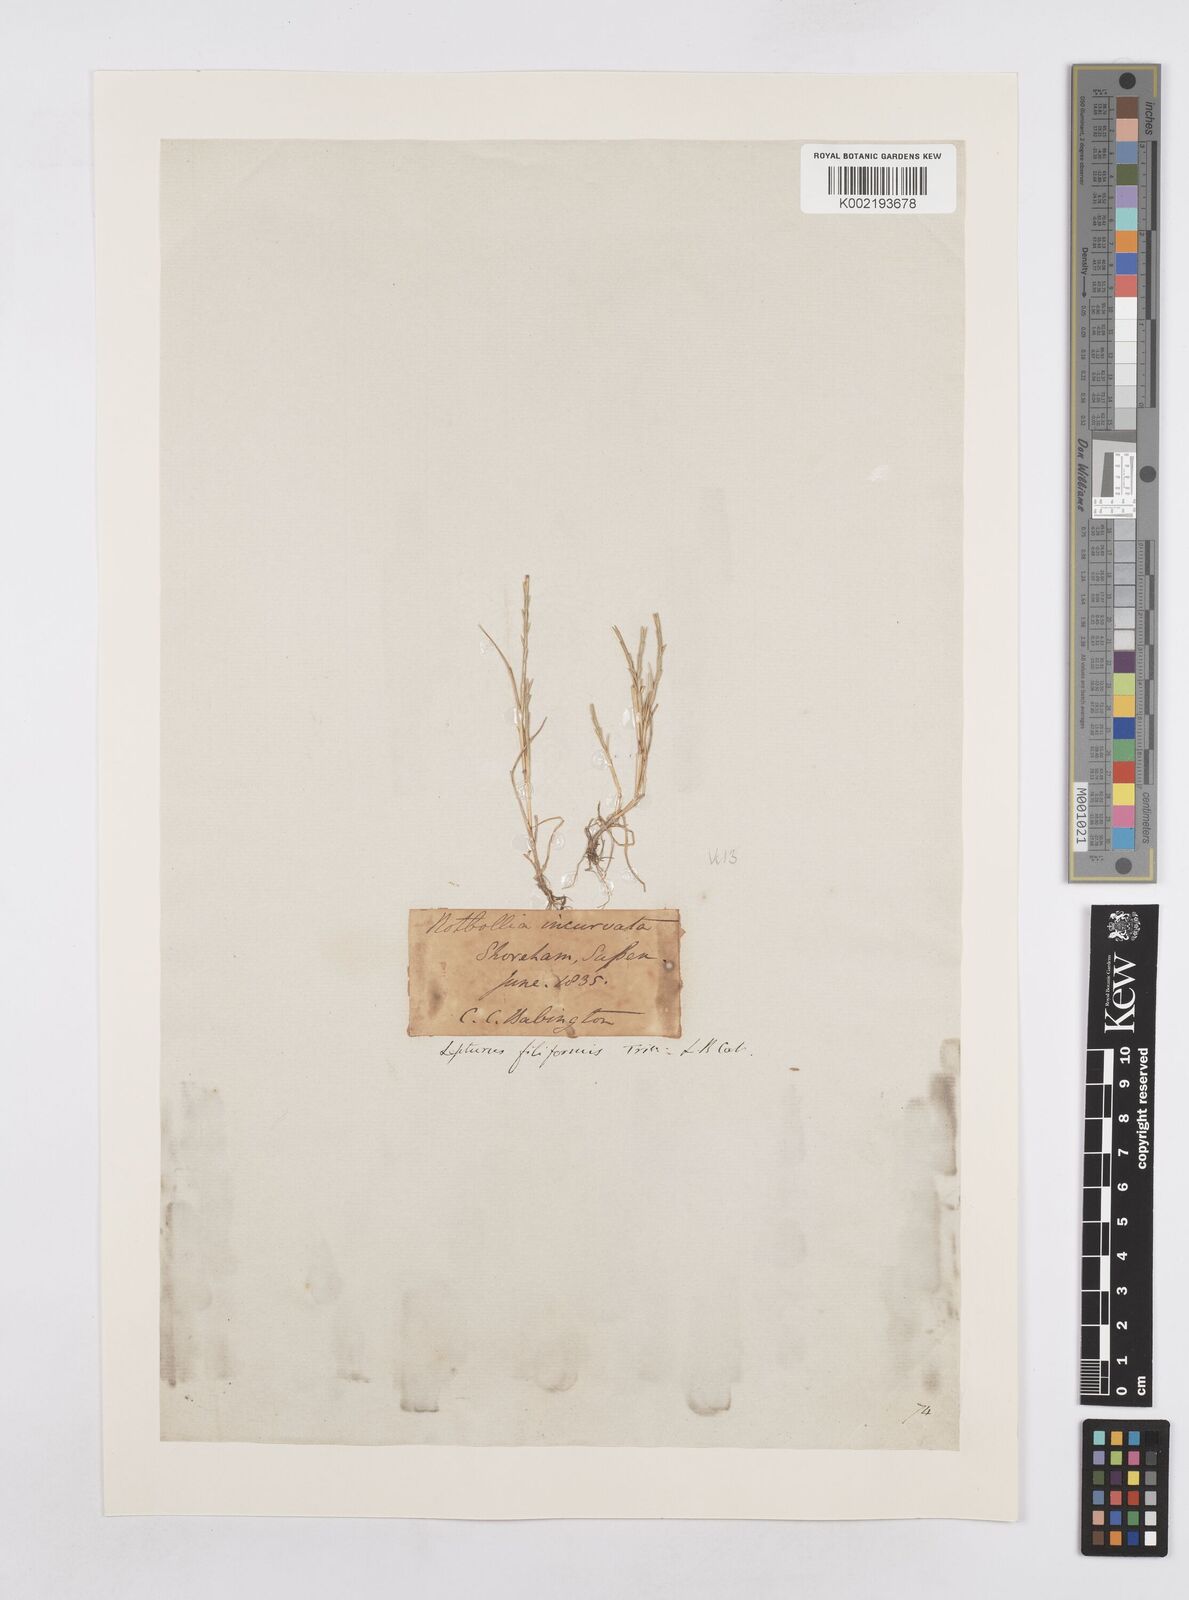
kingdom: Plantae
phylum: Tracheophyta
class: Liliopsida
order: Poales
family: Poaceae
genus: Parapholis
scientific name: Parapholis strigosa
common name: Hard-grass
